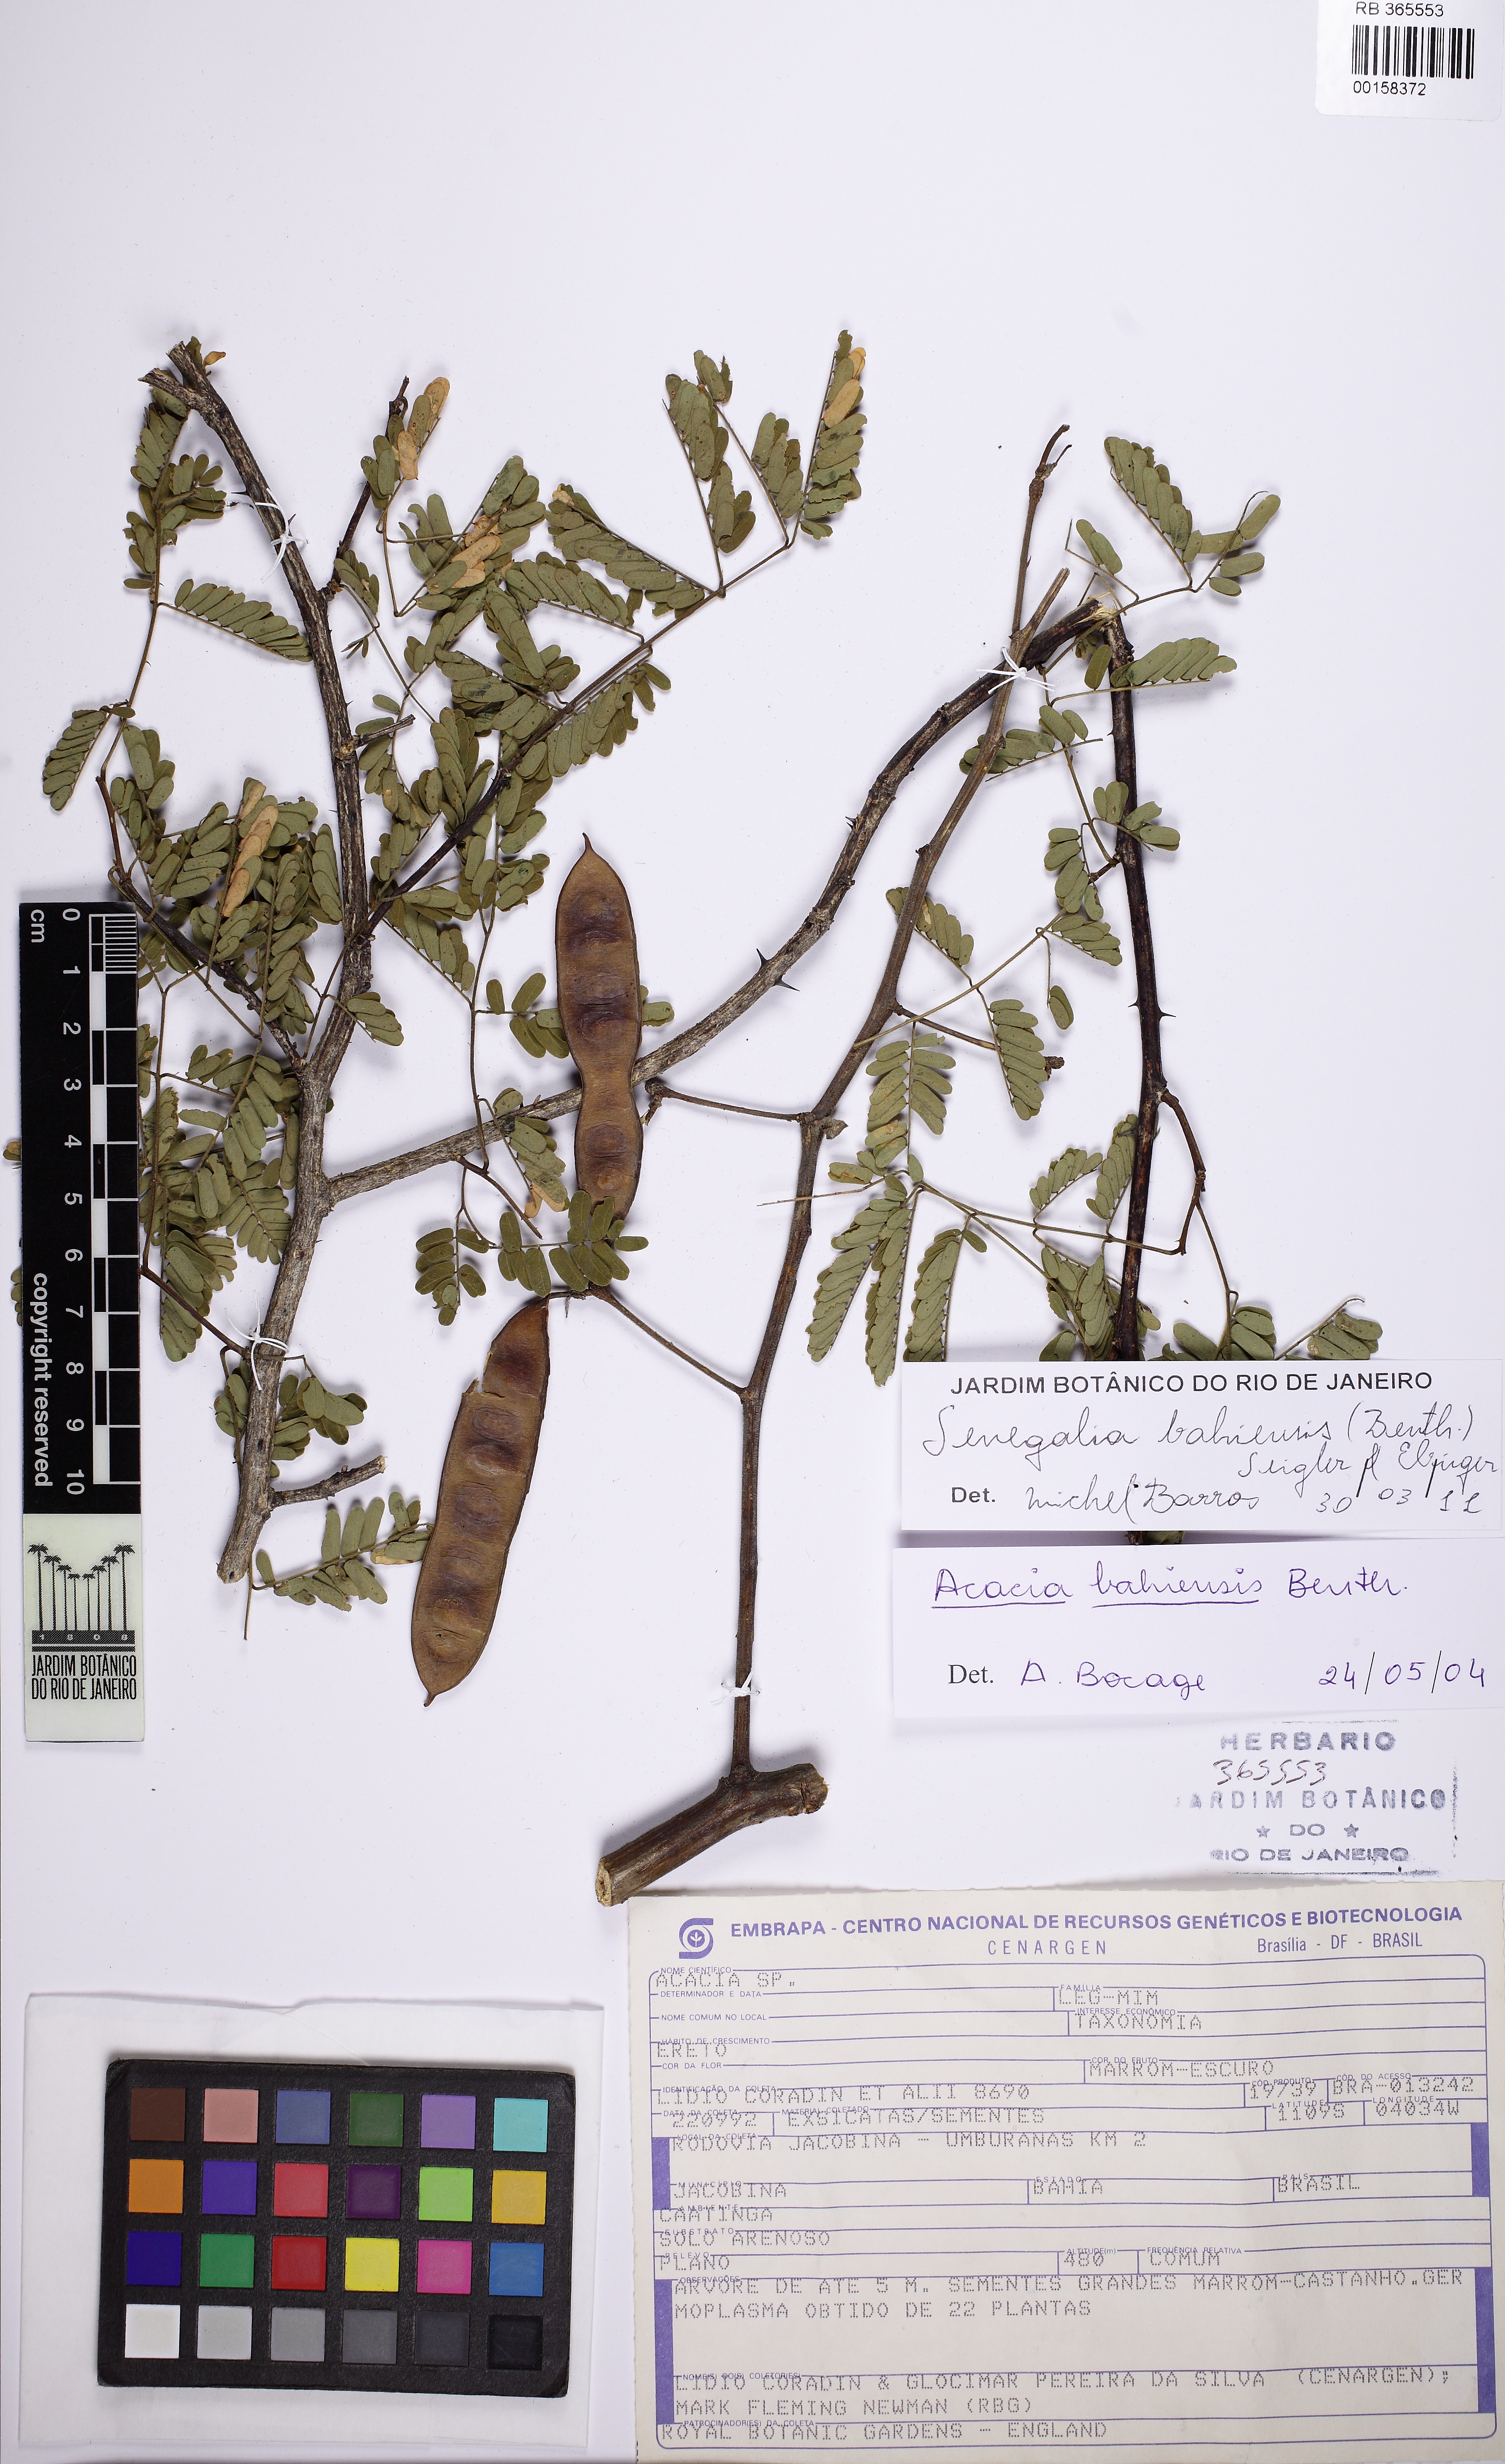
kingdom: Plantae
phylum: Tracheophyta
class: Magnoliopsida
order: Fabales
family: Fabaceae
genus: Senegalia
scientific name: Senegalia bahiensis
